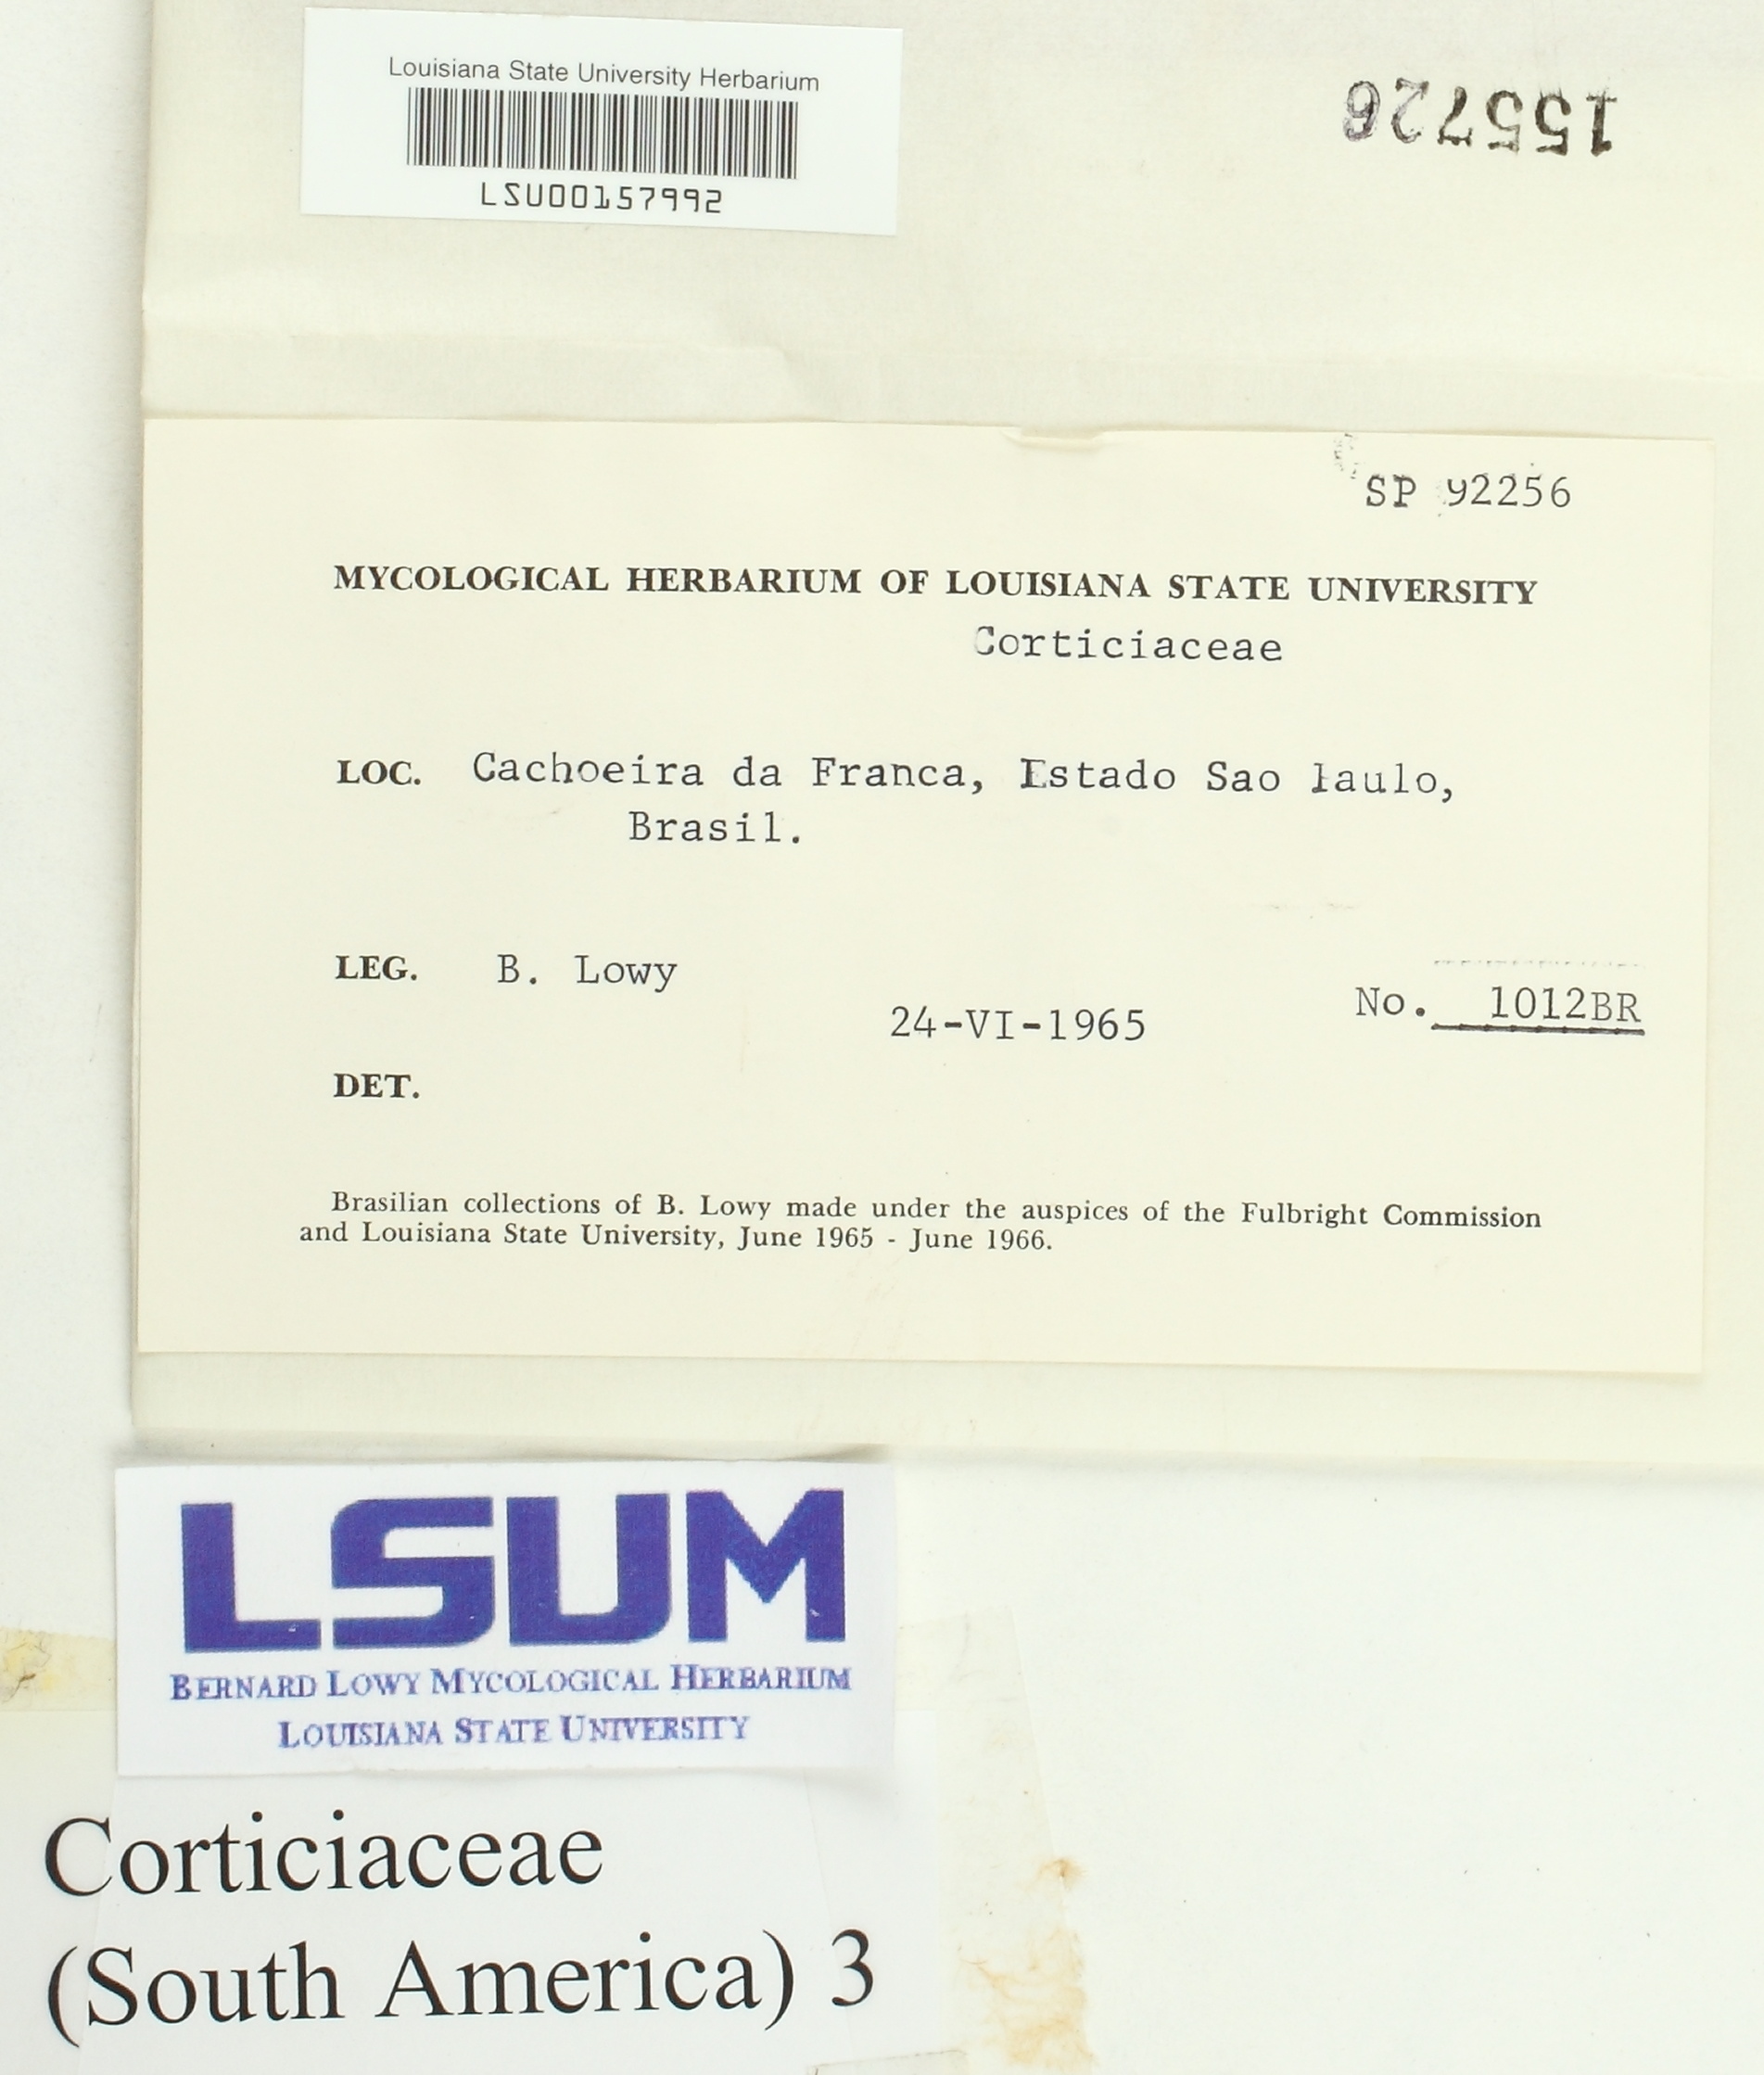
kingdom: Fungi
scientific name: Fungi
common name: Fungi
